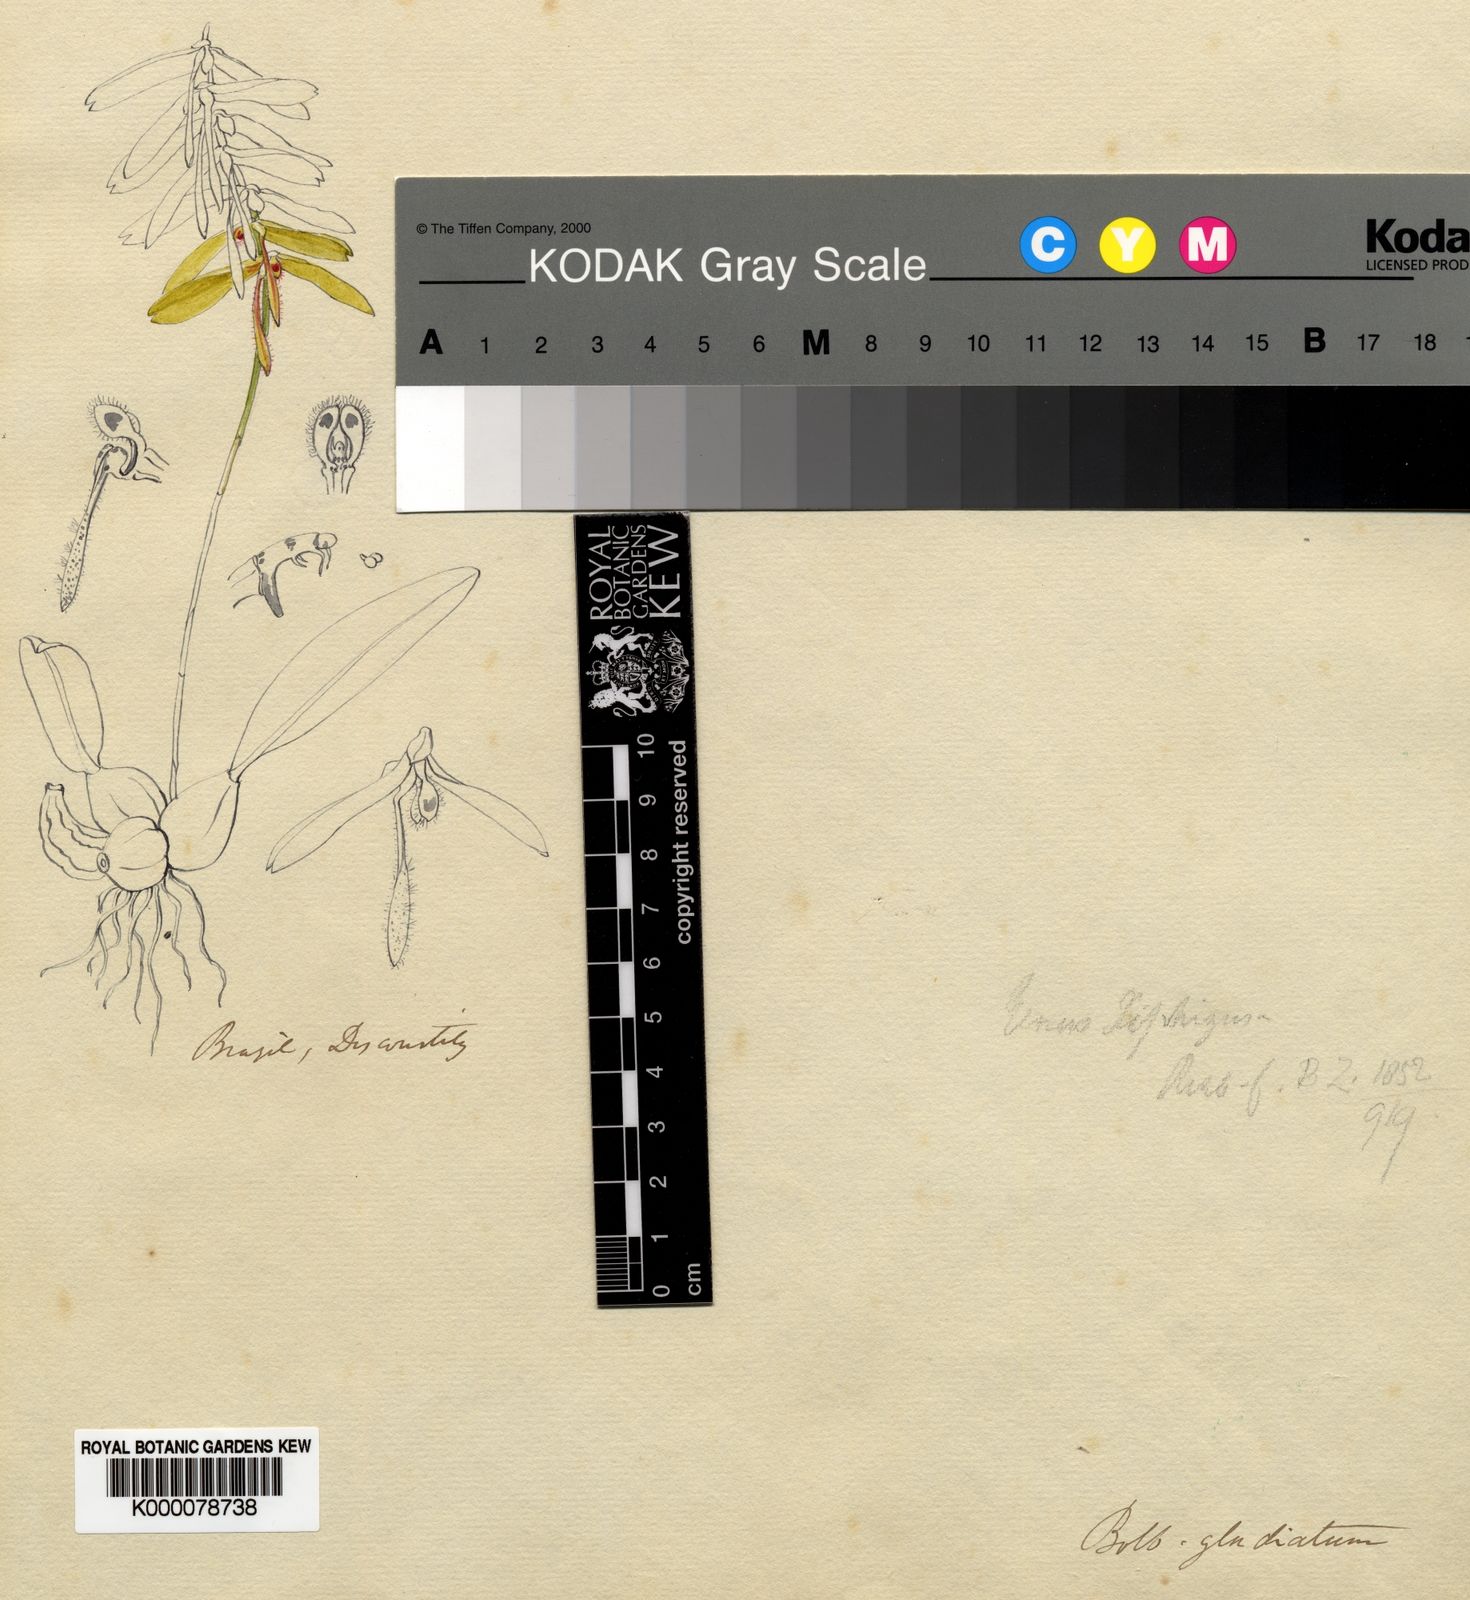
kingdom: Plantae
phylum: Tracheophyta
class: Liliopsida
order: Asparagales
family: Orchidaceae
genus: Bulbophyllum
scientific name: Bulbophyllum gladiatum
